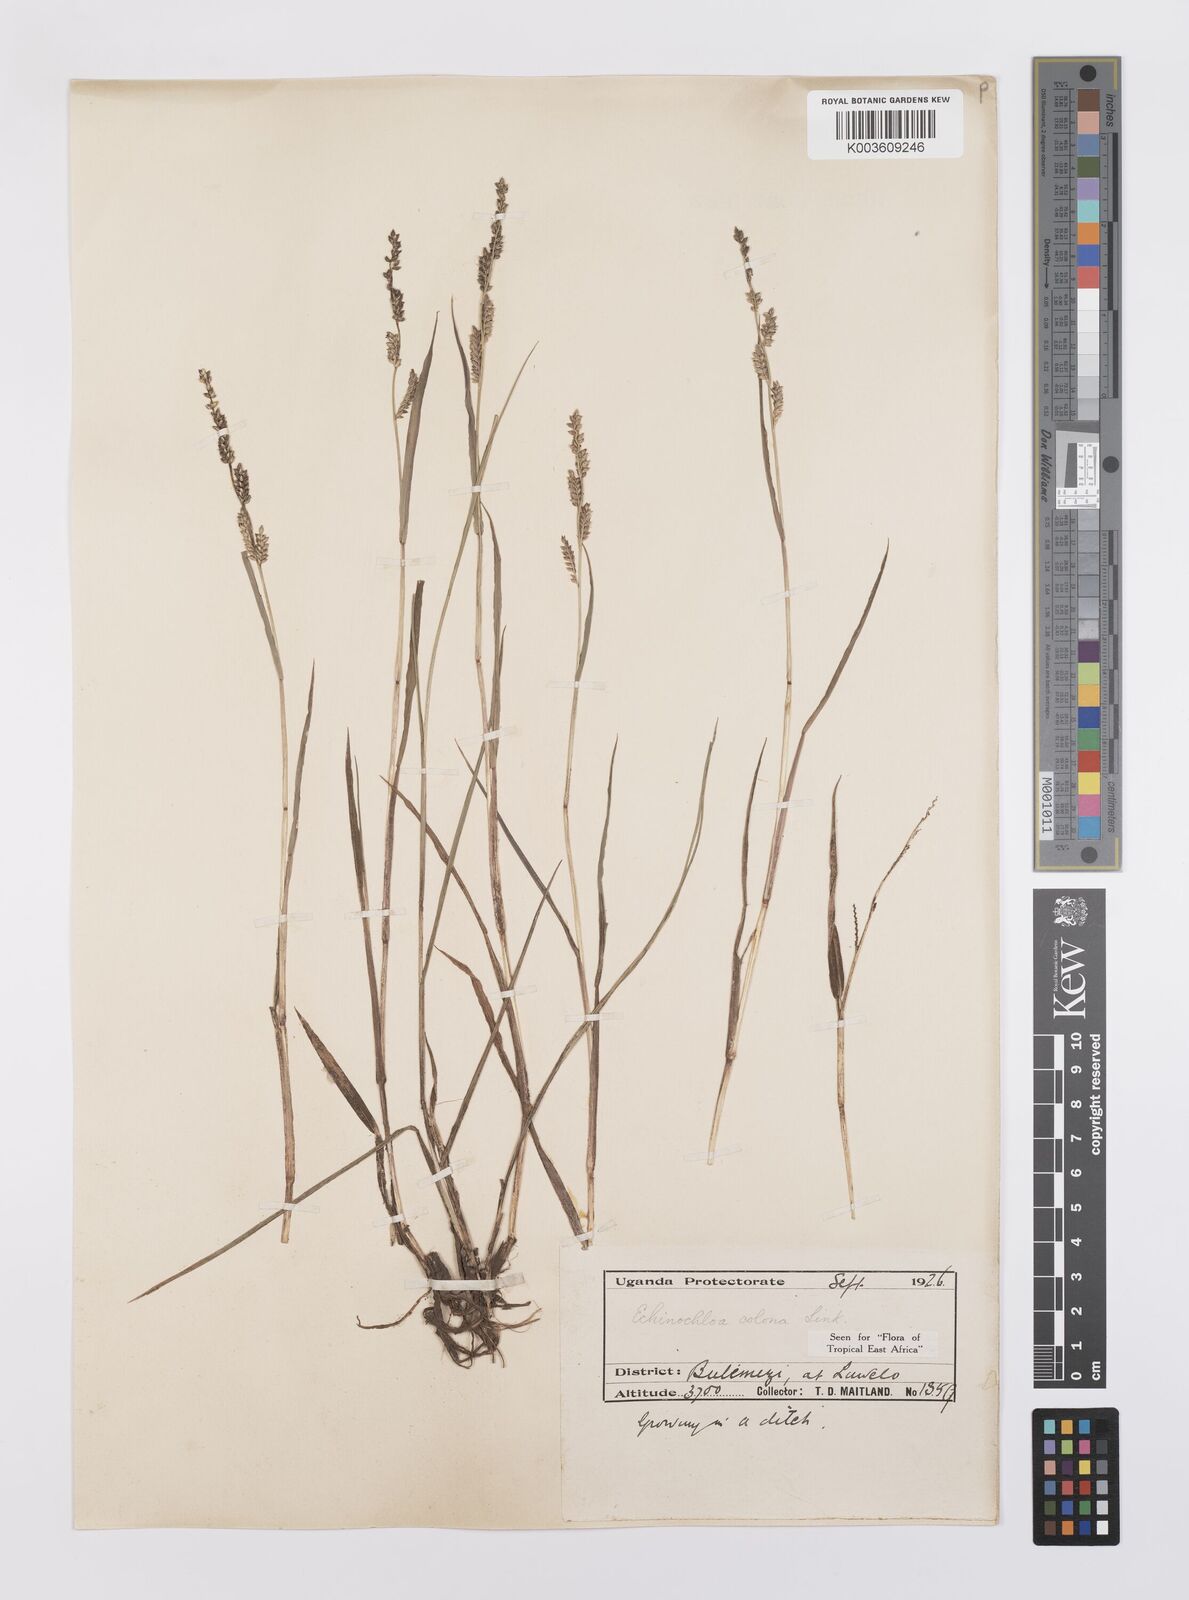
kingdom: Plantae
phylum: Tracheophyta
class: Liliopsida
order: Poales
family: Poaceae
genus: Echinochloa
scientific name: Echinochloa colonum
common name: Jungle rice
